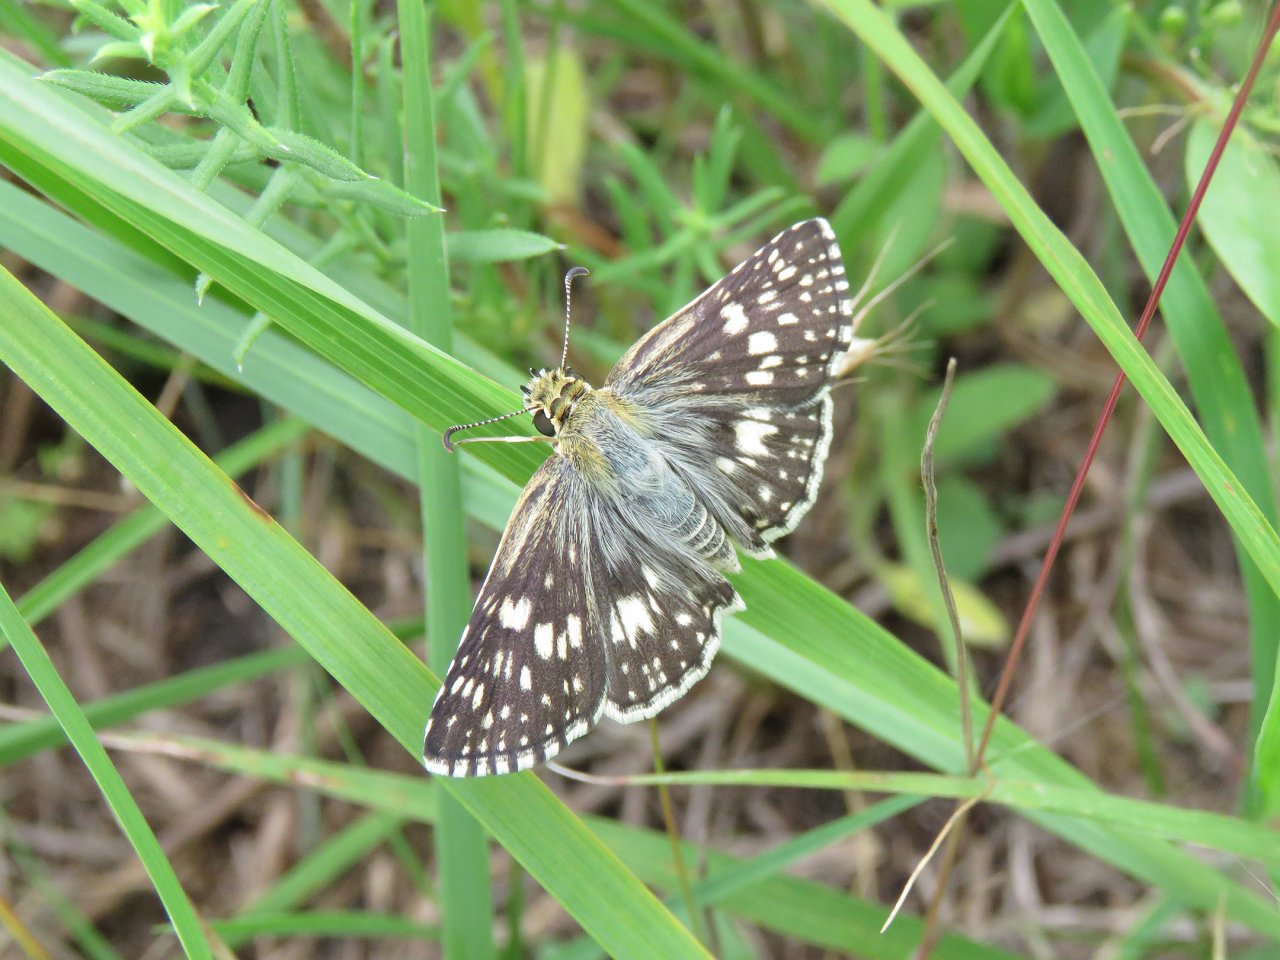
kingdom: Animalia
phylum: Arthropoda
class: Insecta
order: Lepidoptera
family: Hesperiidae
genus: Pyrgus
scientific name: Pyrgus communis
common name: Common Checkered-Skipper
